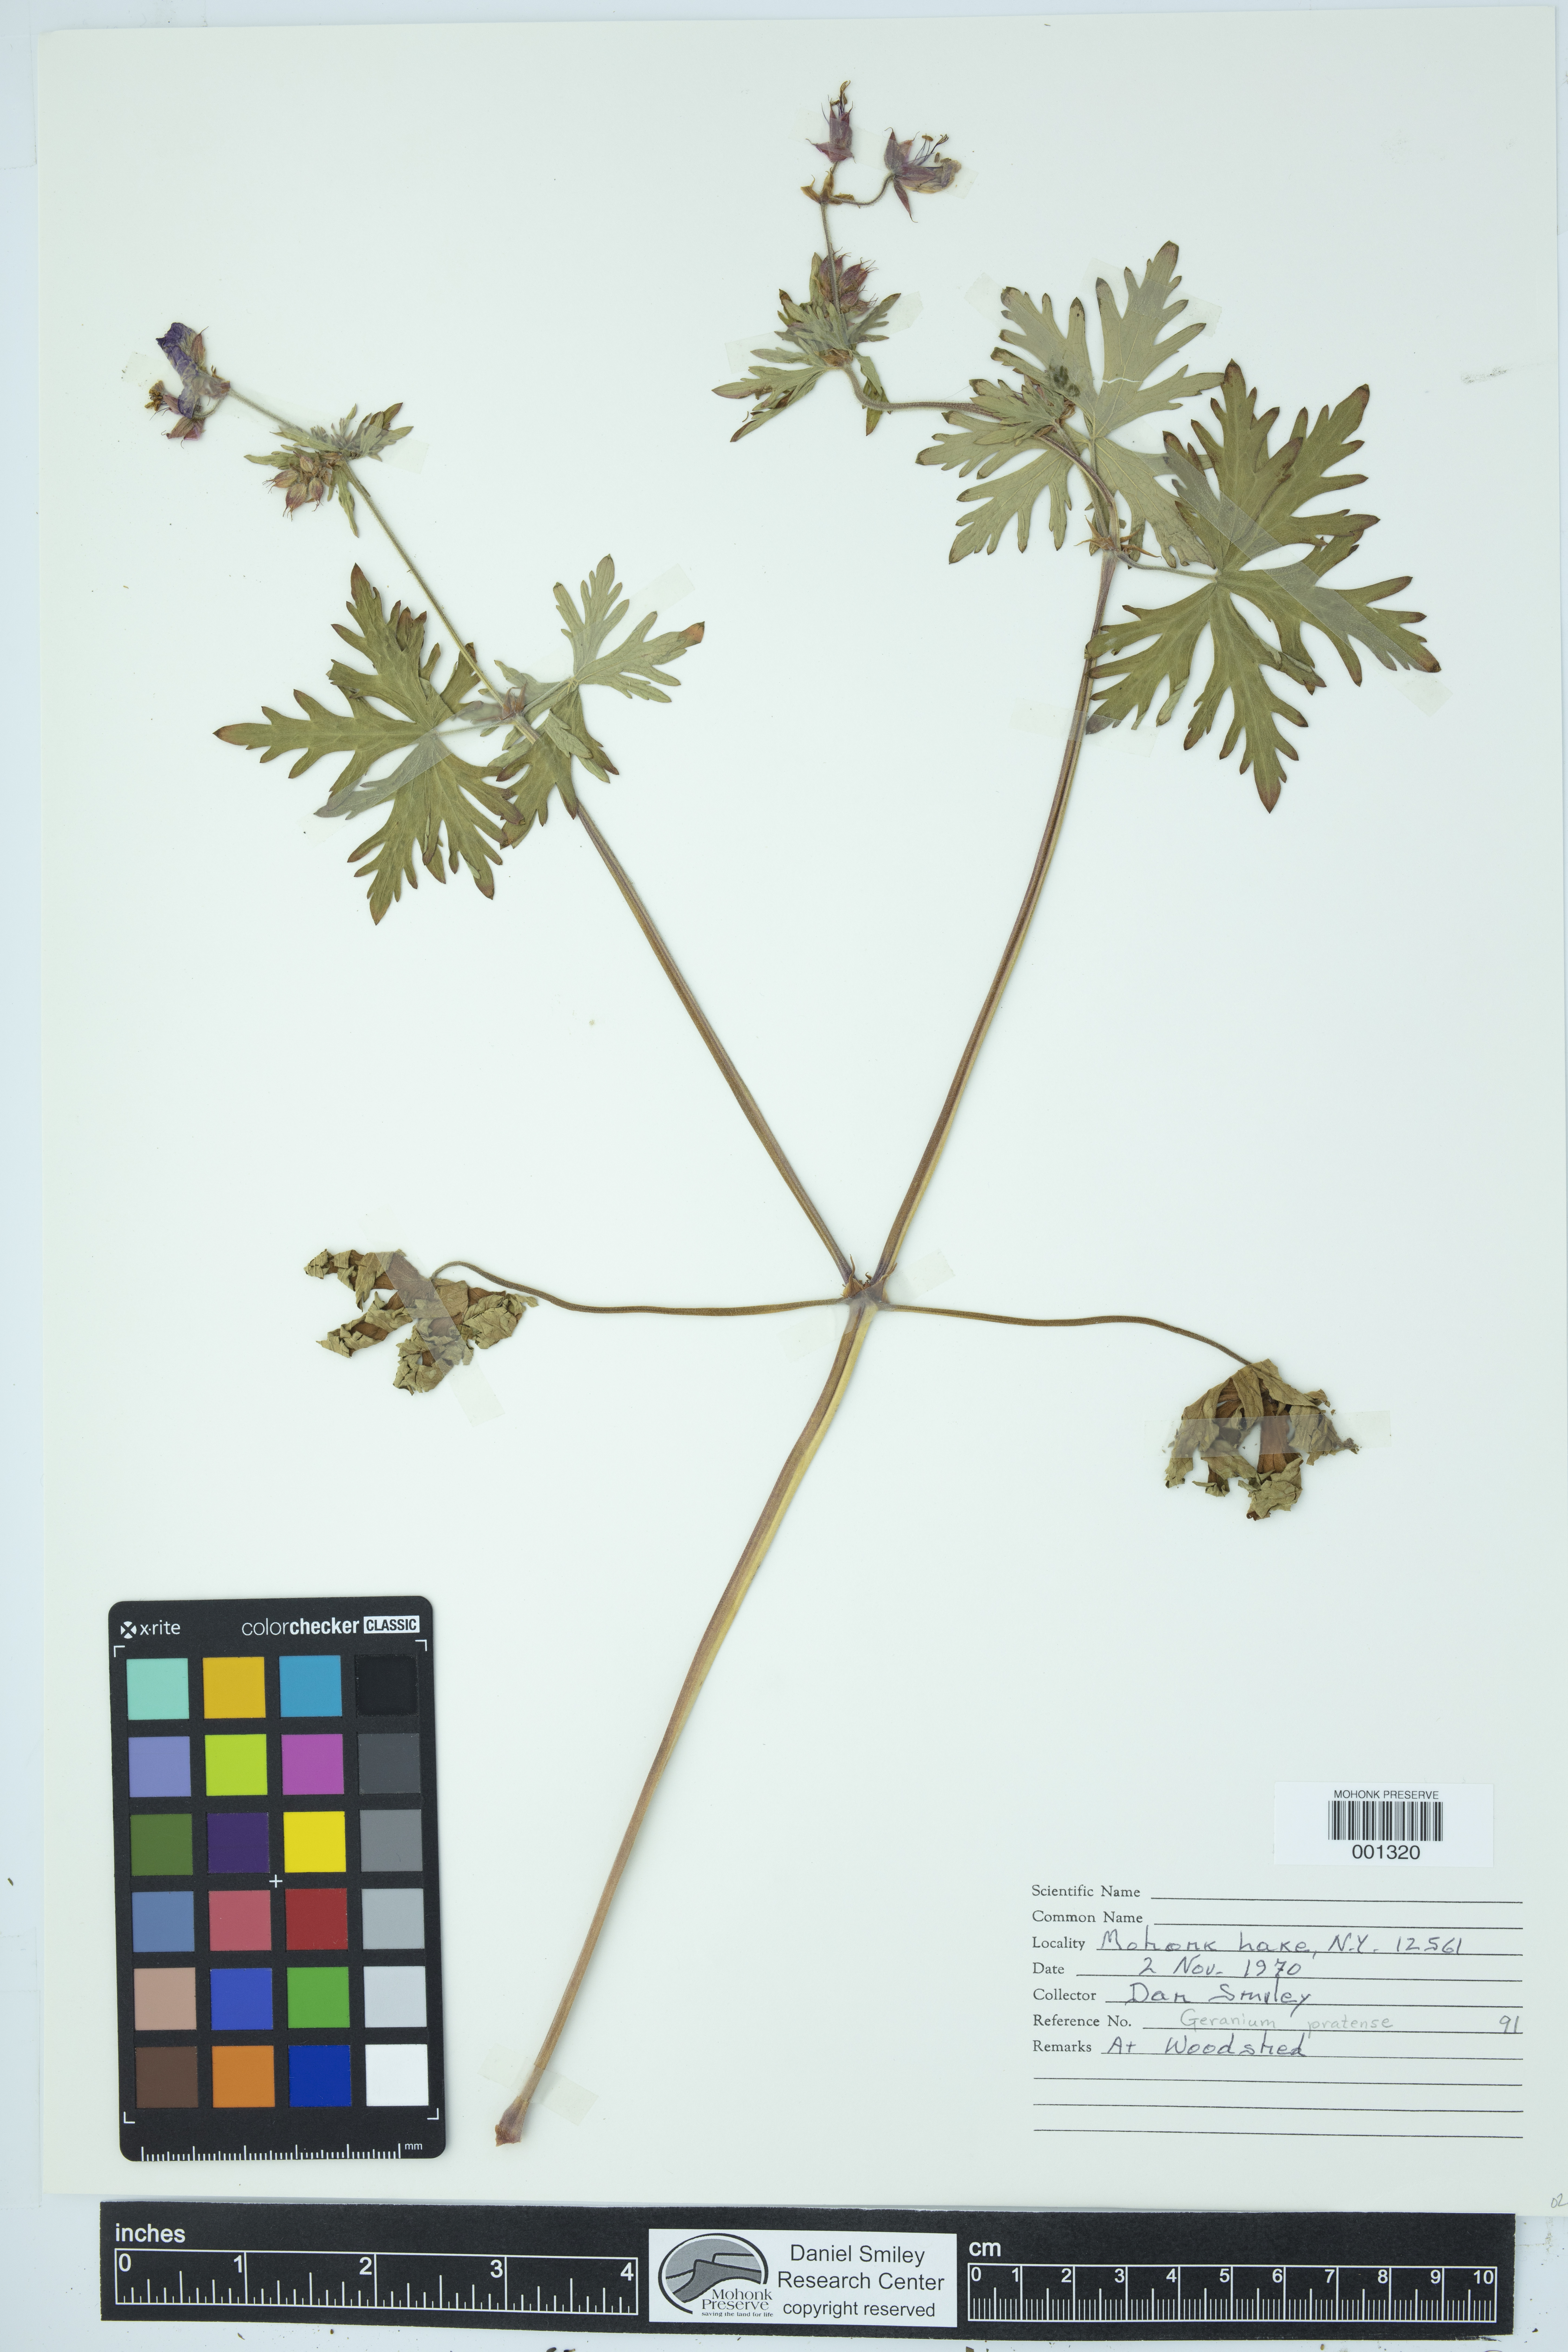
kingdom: Plantae
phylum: Tracheophyta
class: Magnoliopsida
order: Geraniales
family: Geraniaceae
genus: Geranium
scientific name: Geranium pratense
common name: Meadow crane's-bill
